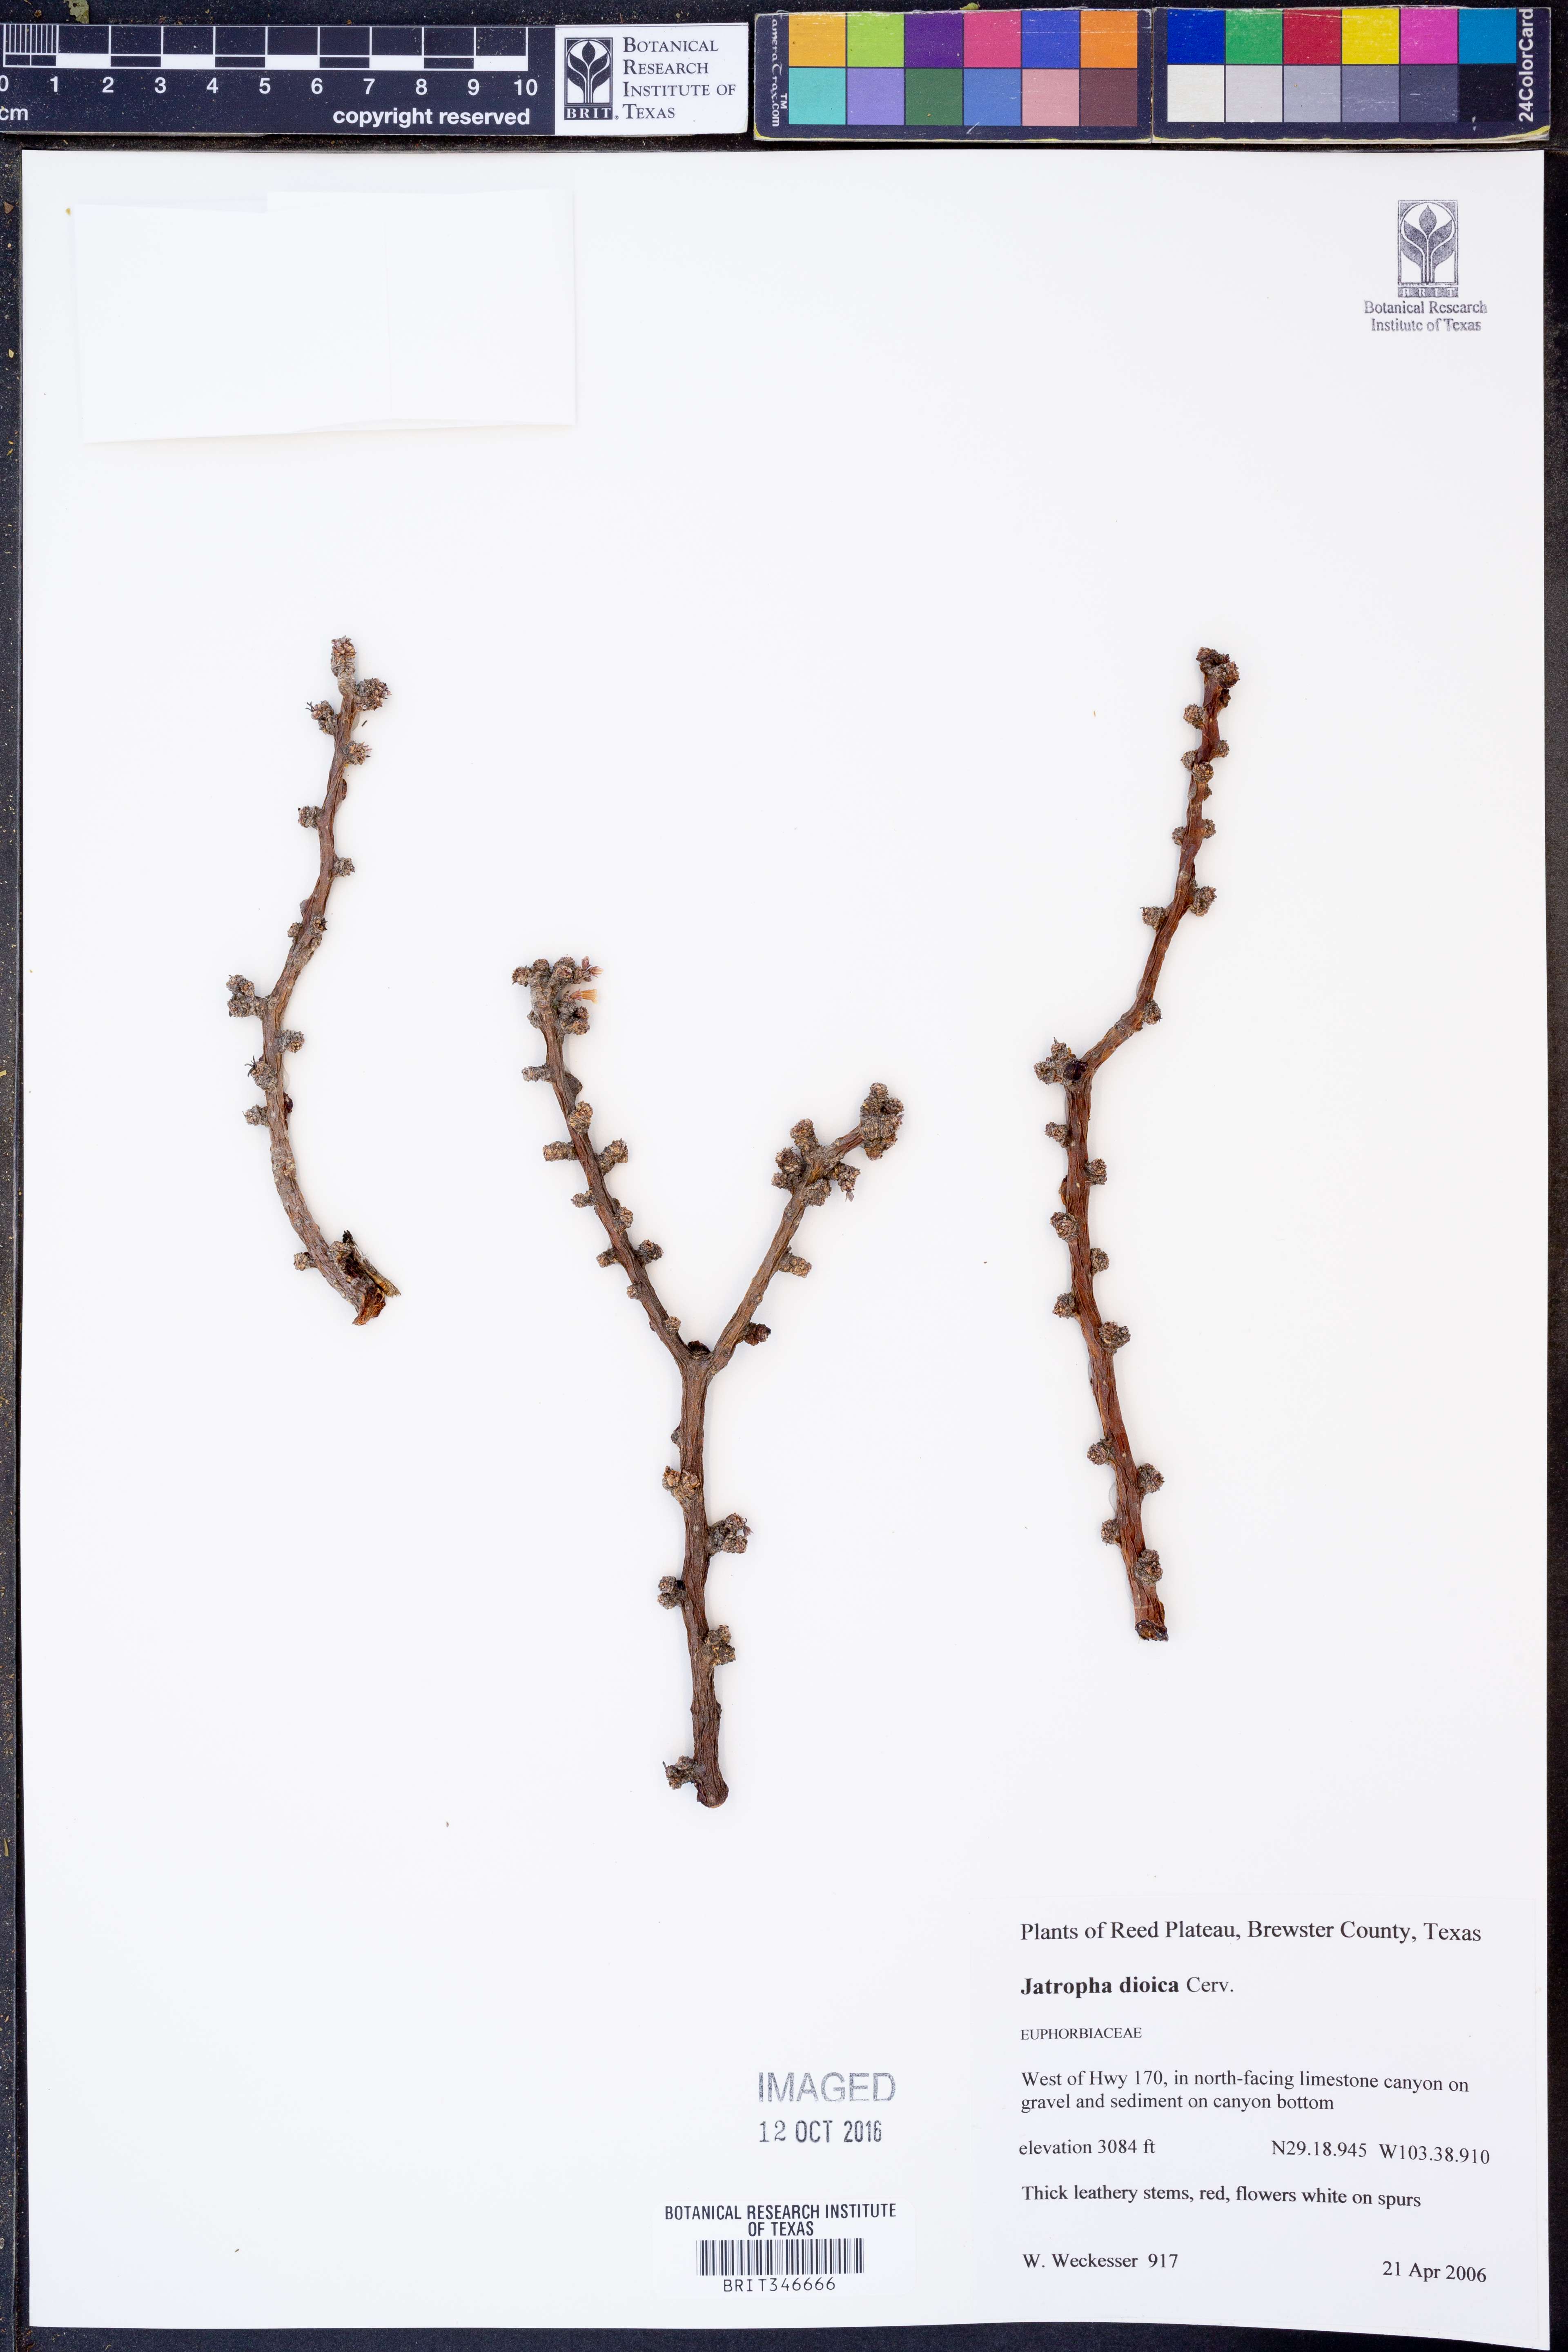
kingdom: Plantae
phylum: Tracheophyta
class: Magnoliopsida
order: Malpighiales
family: Euphorbiaceae
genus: Jatropha
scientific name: Jatropha dioica
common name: Leatherstem
